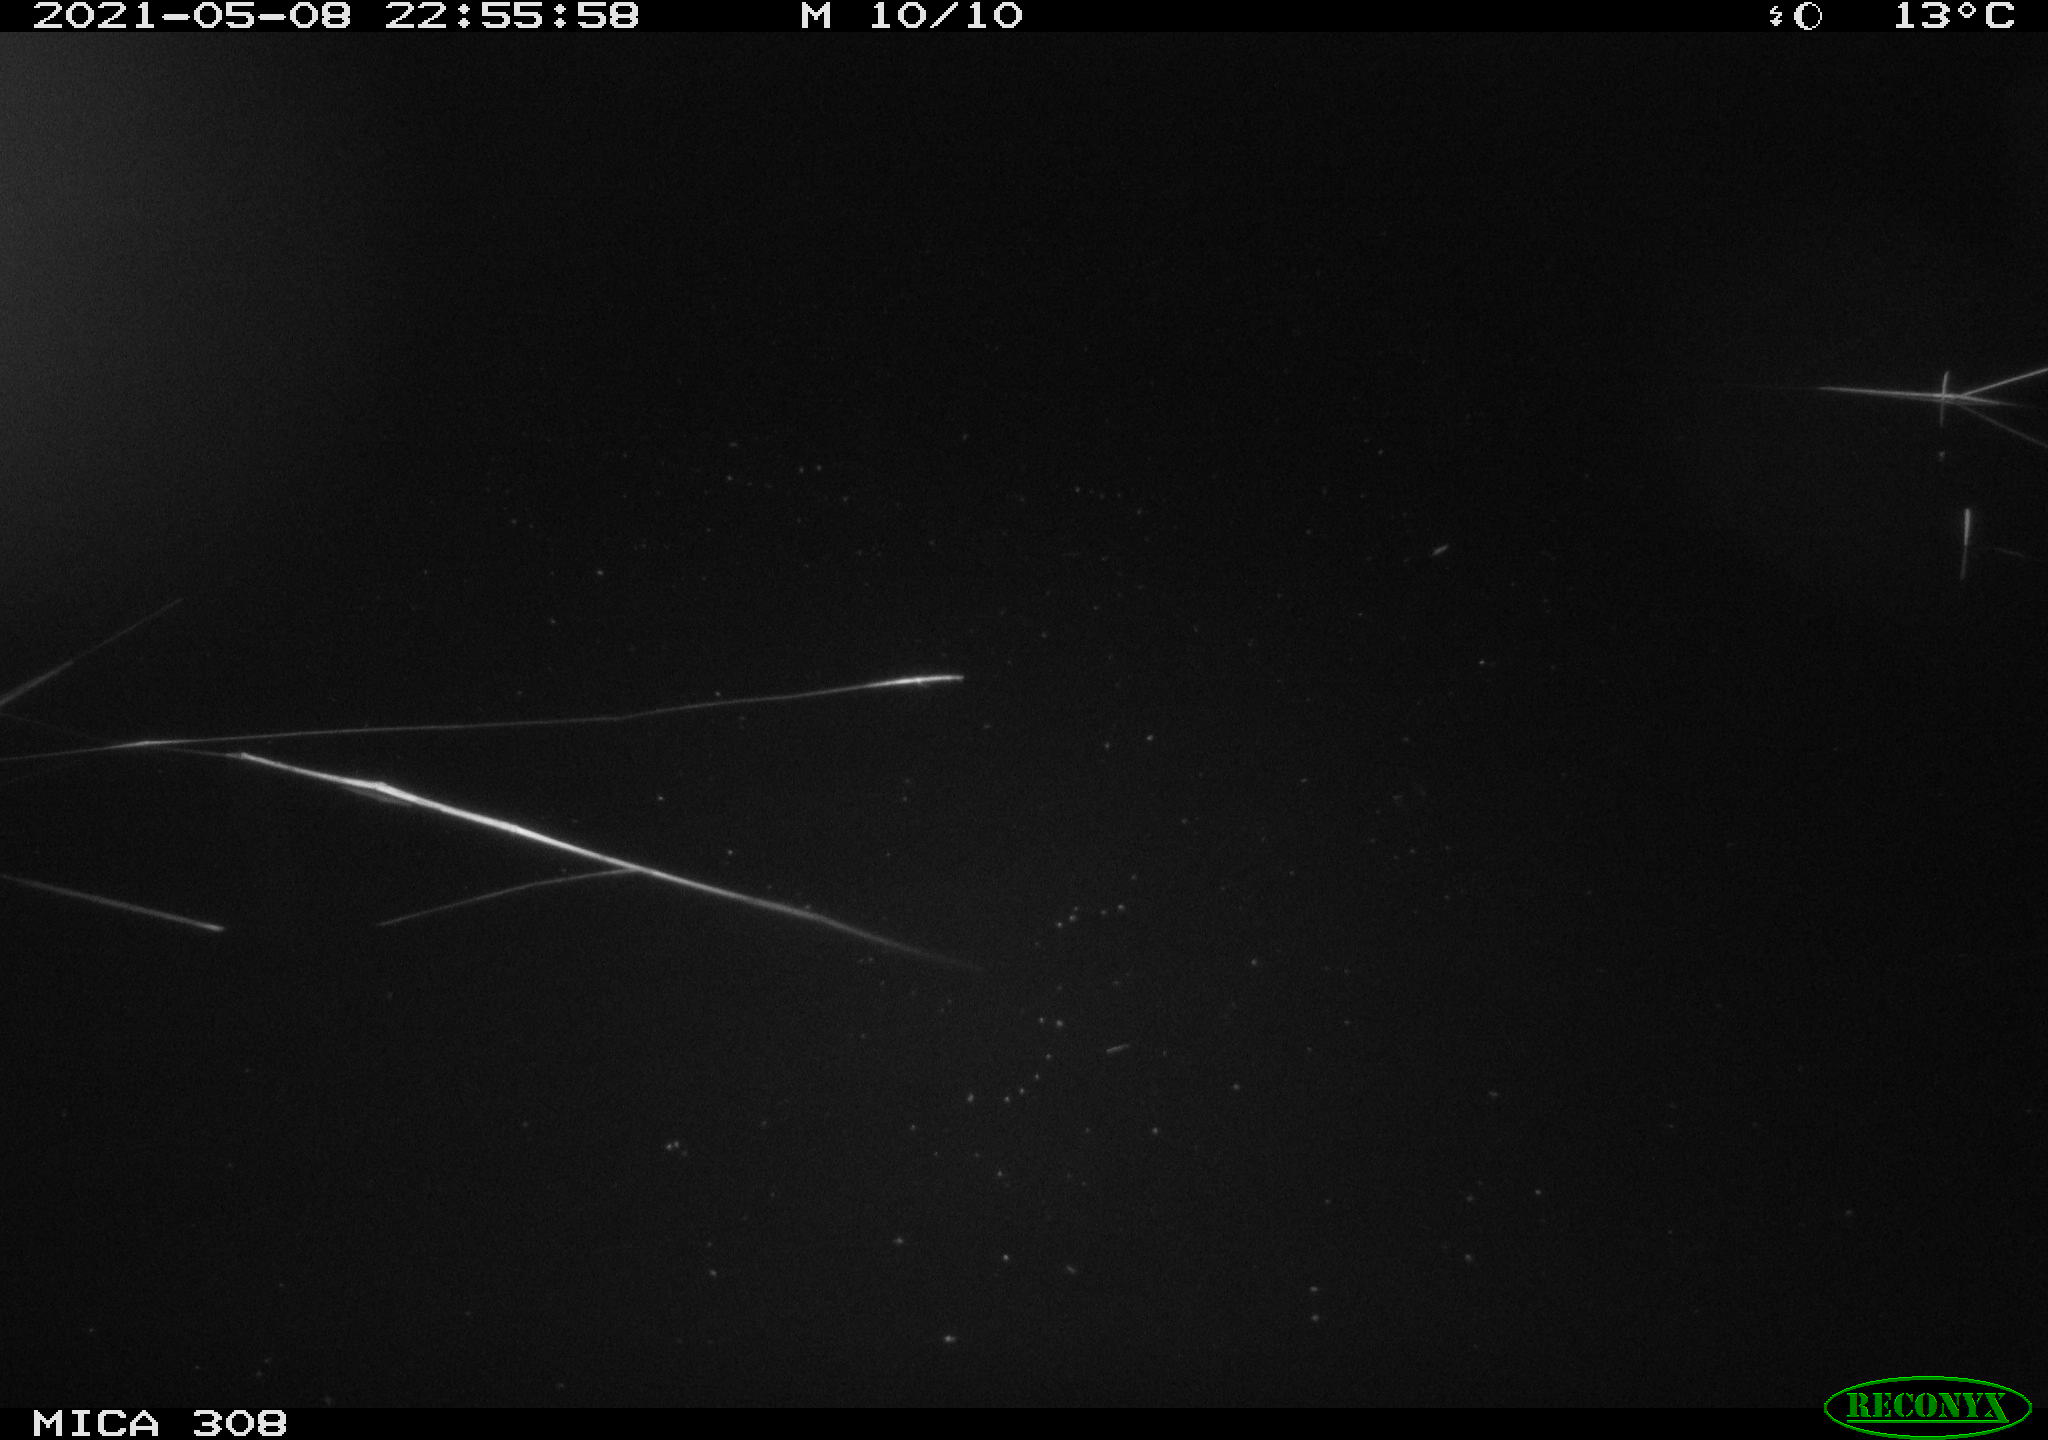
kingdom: Animalia
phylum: Chordata
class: Mammalia
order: Rodentia
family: Cricetidae
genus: Ondatra
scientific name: Ondatra zibethicus
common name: Muskrat
